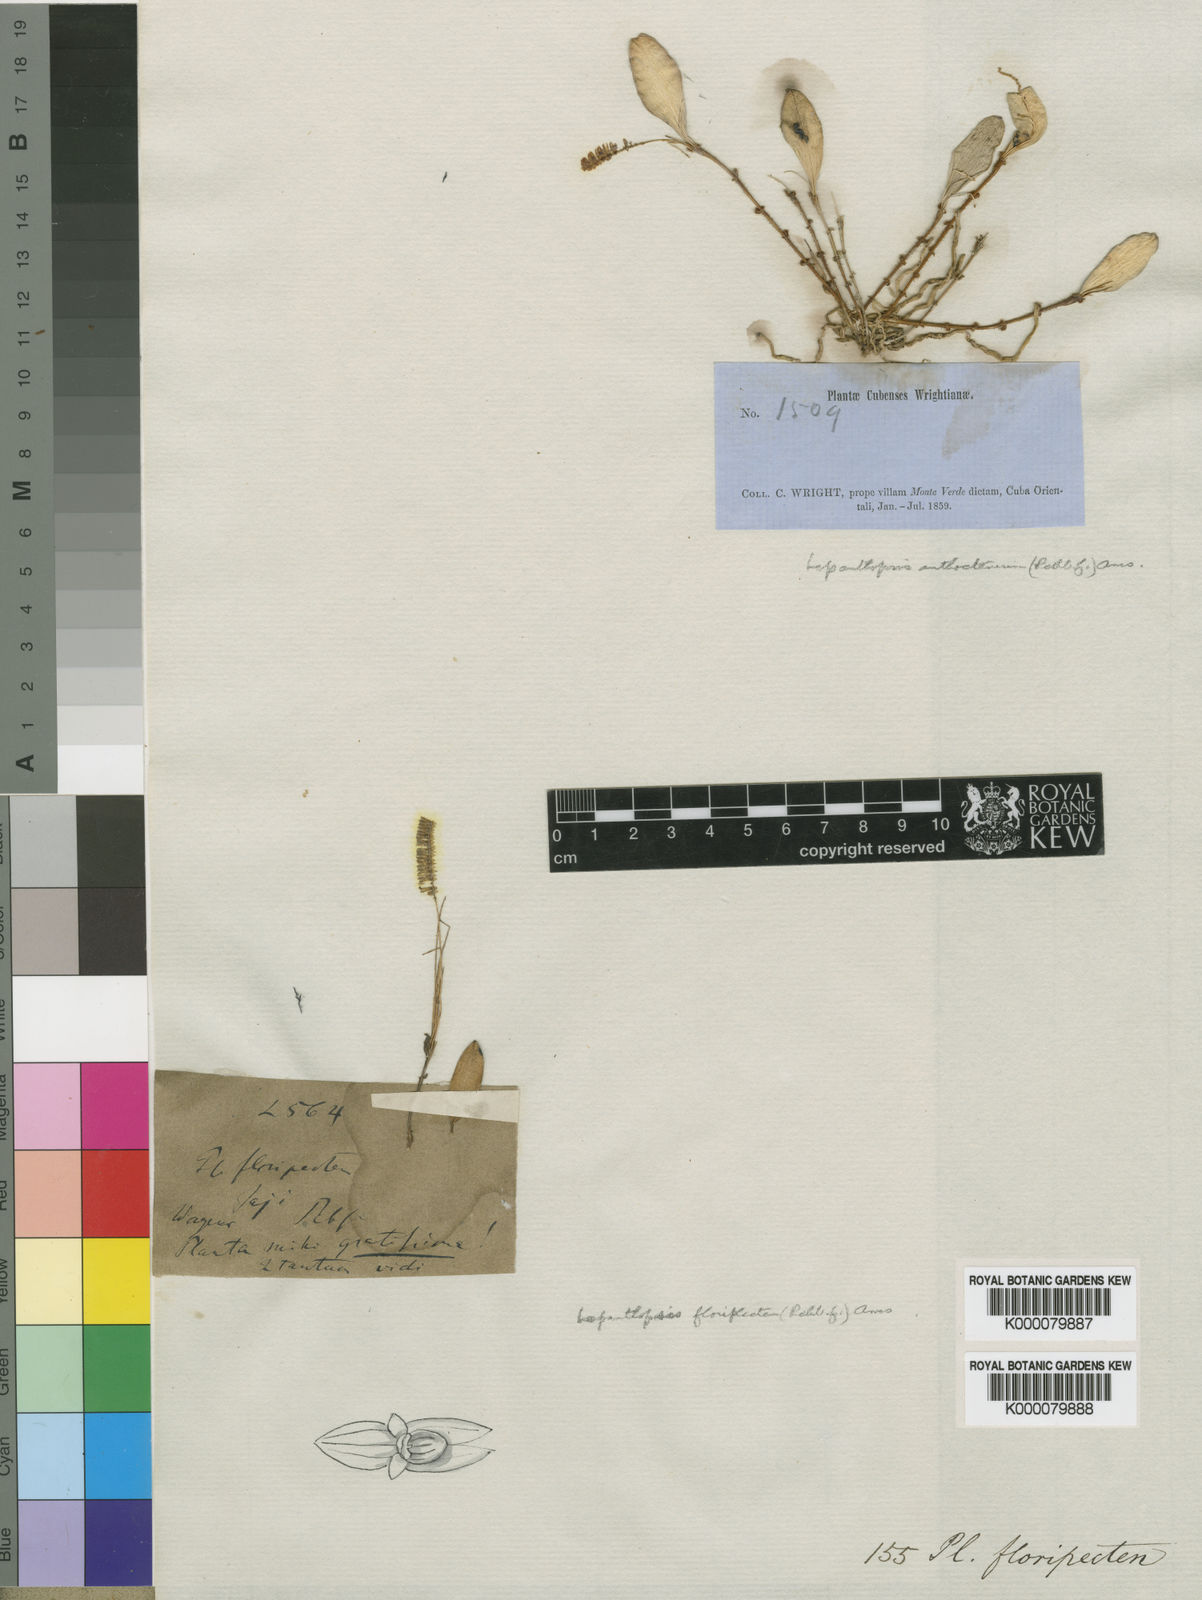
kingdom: Plantae
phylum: Tracheophyta
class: Liliopsida
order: Asparagales
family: Orchidaceae
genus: Lepanthopsis
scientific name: Lepanthopsis floripecten
